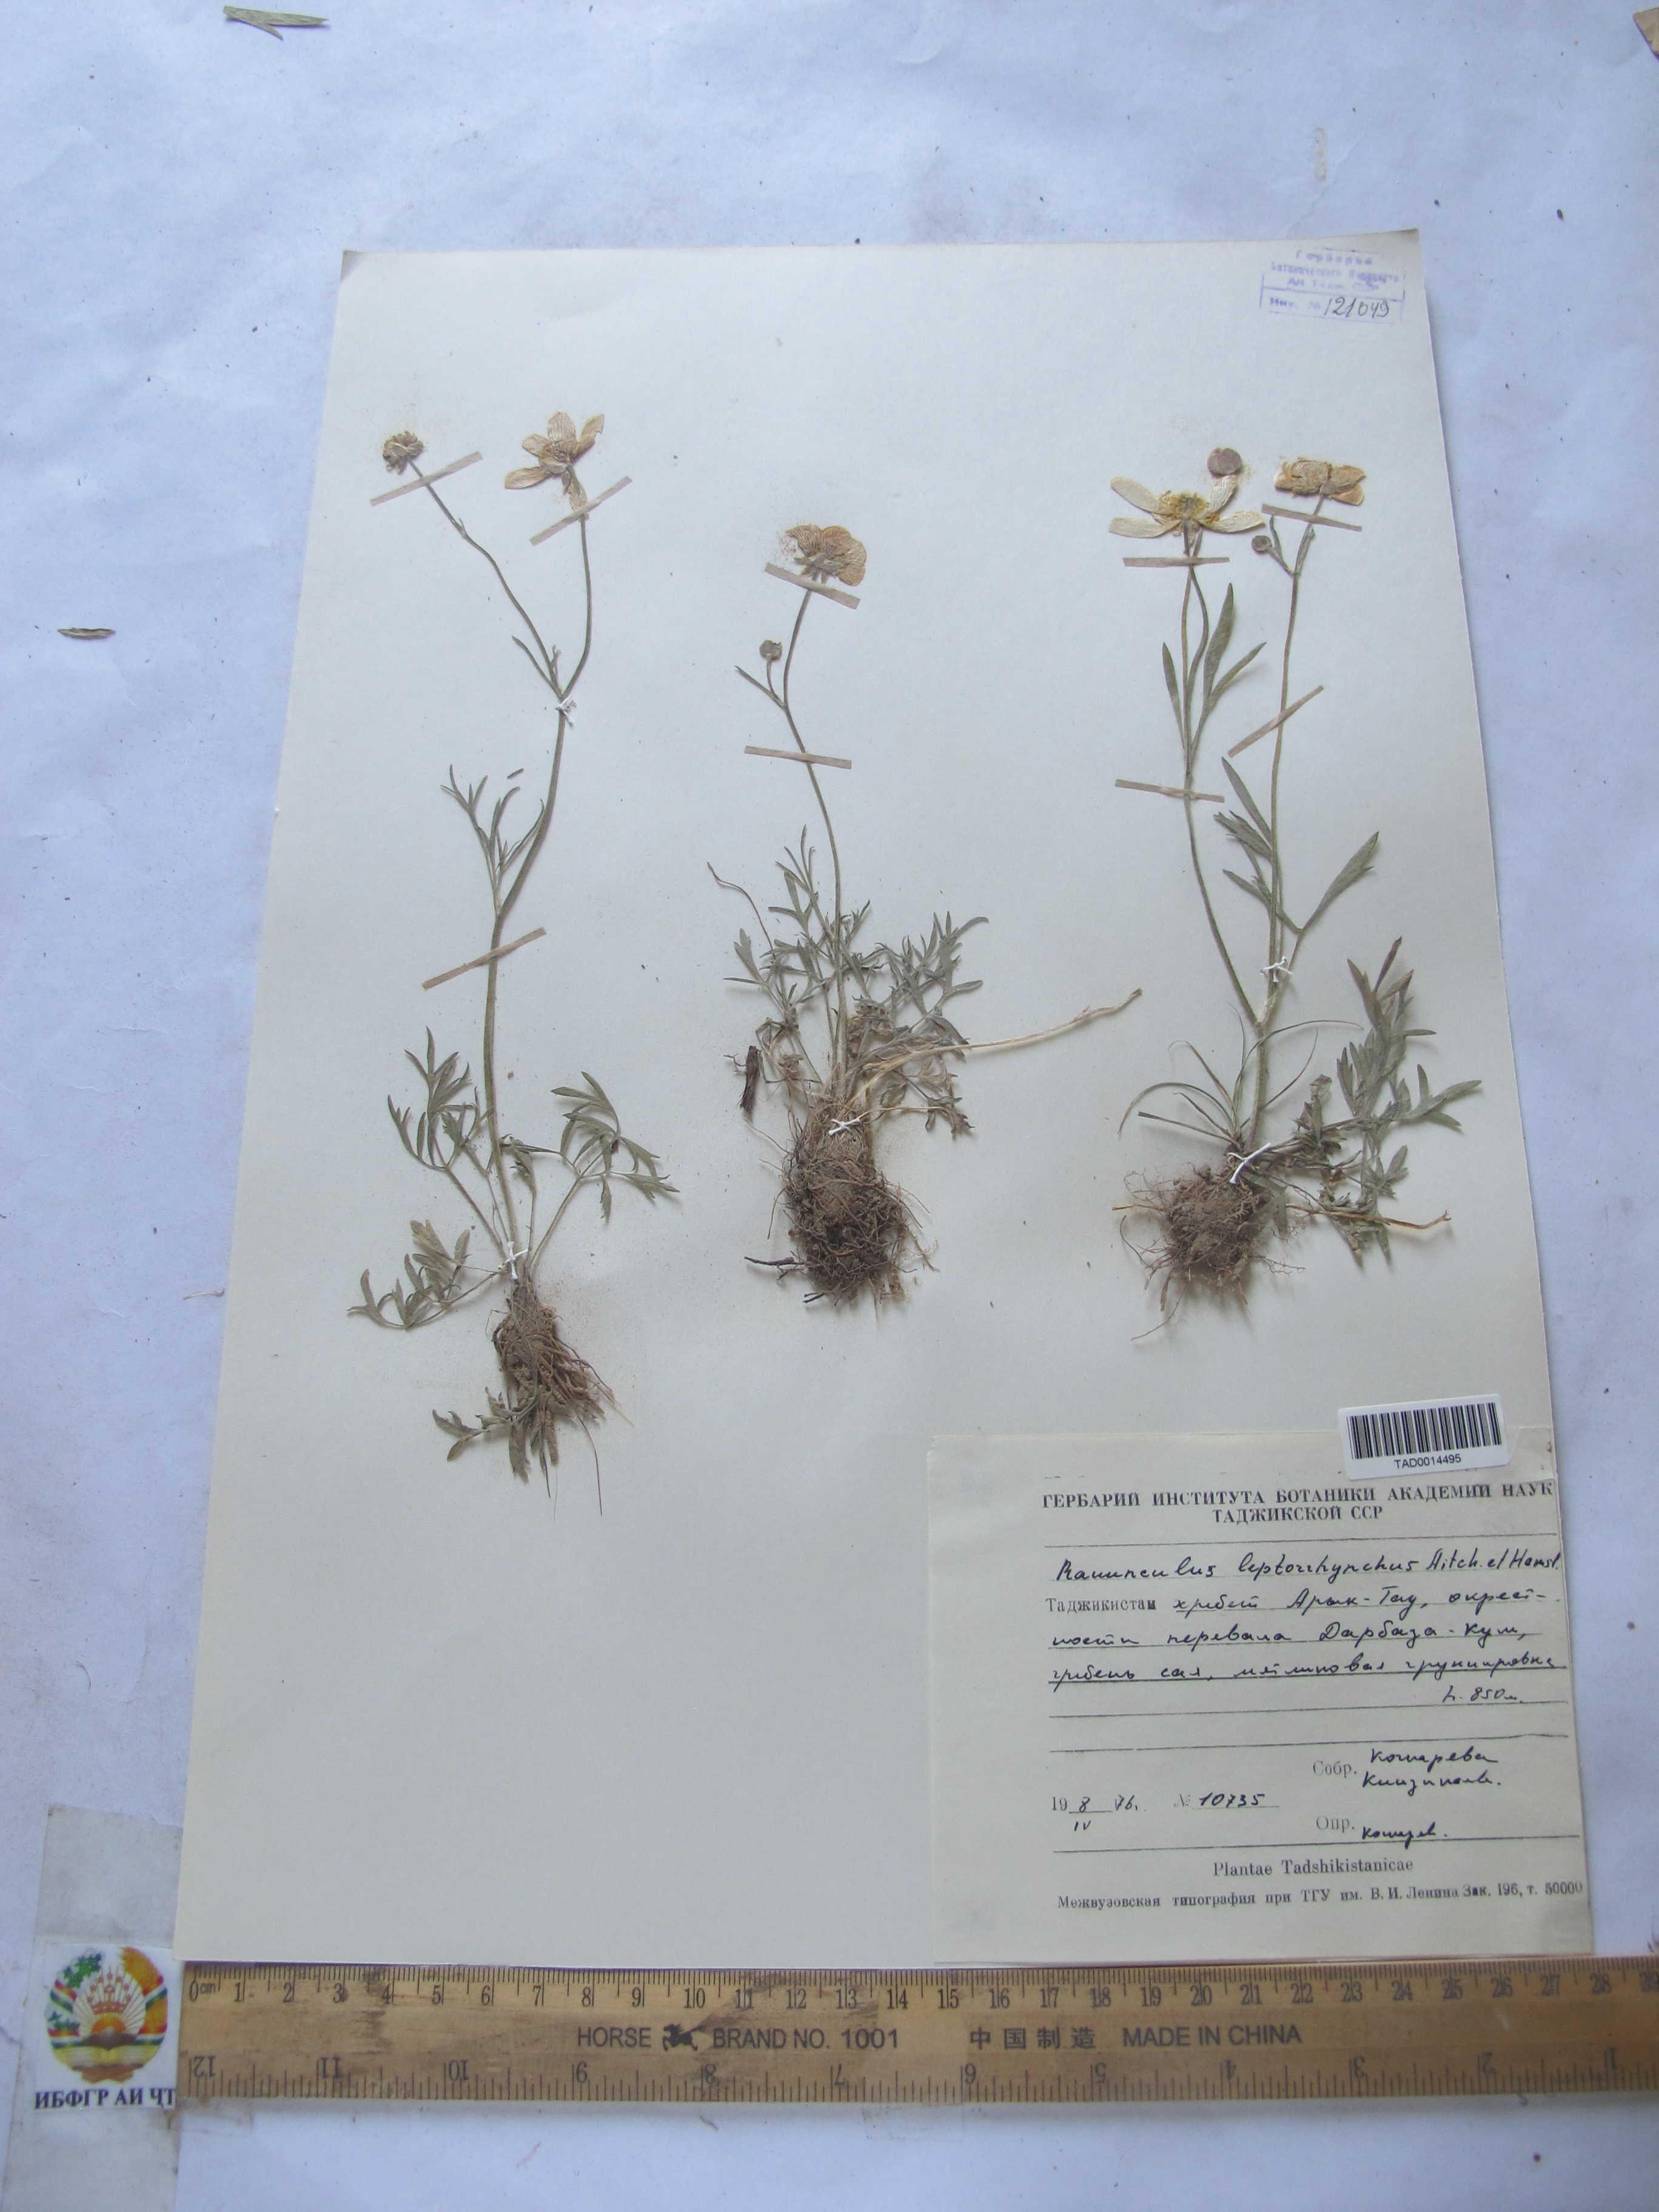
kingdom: Plantae
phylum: Tracheophyta
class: Magnoliopsida
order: Ranunculales
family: Ranunculaceae
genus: Ranunculus
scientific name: Ranunculus leptorrhynchus
